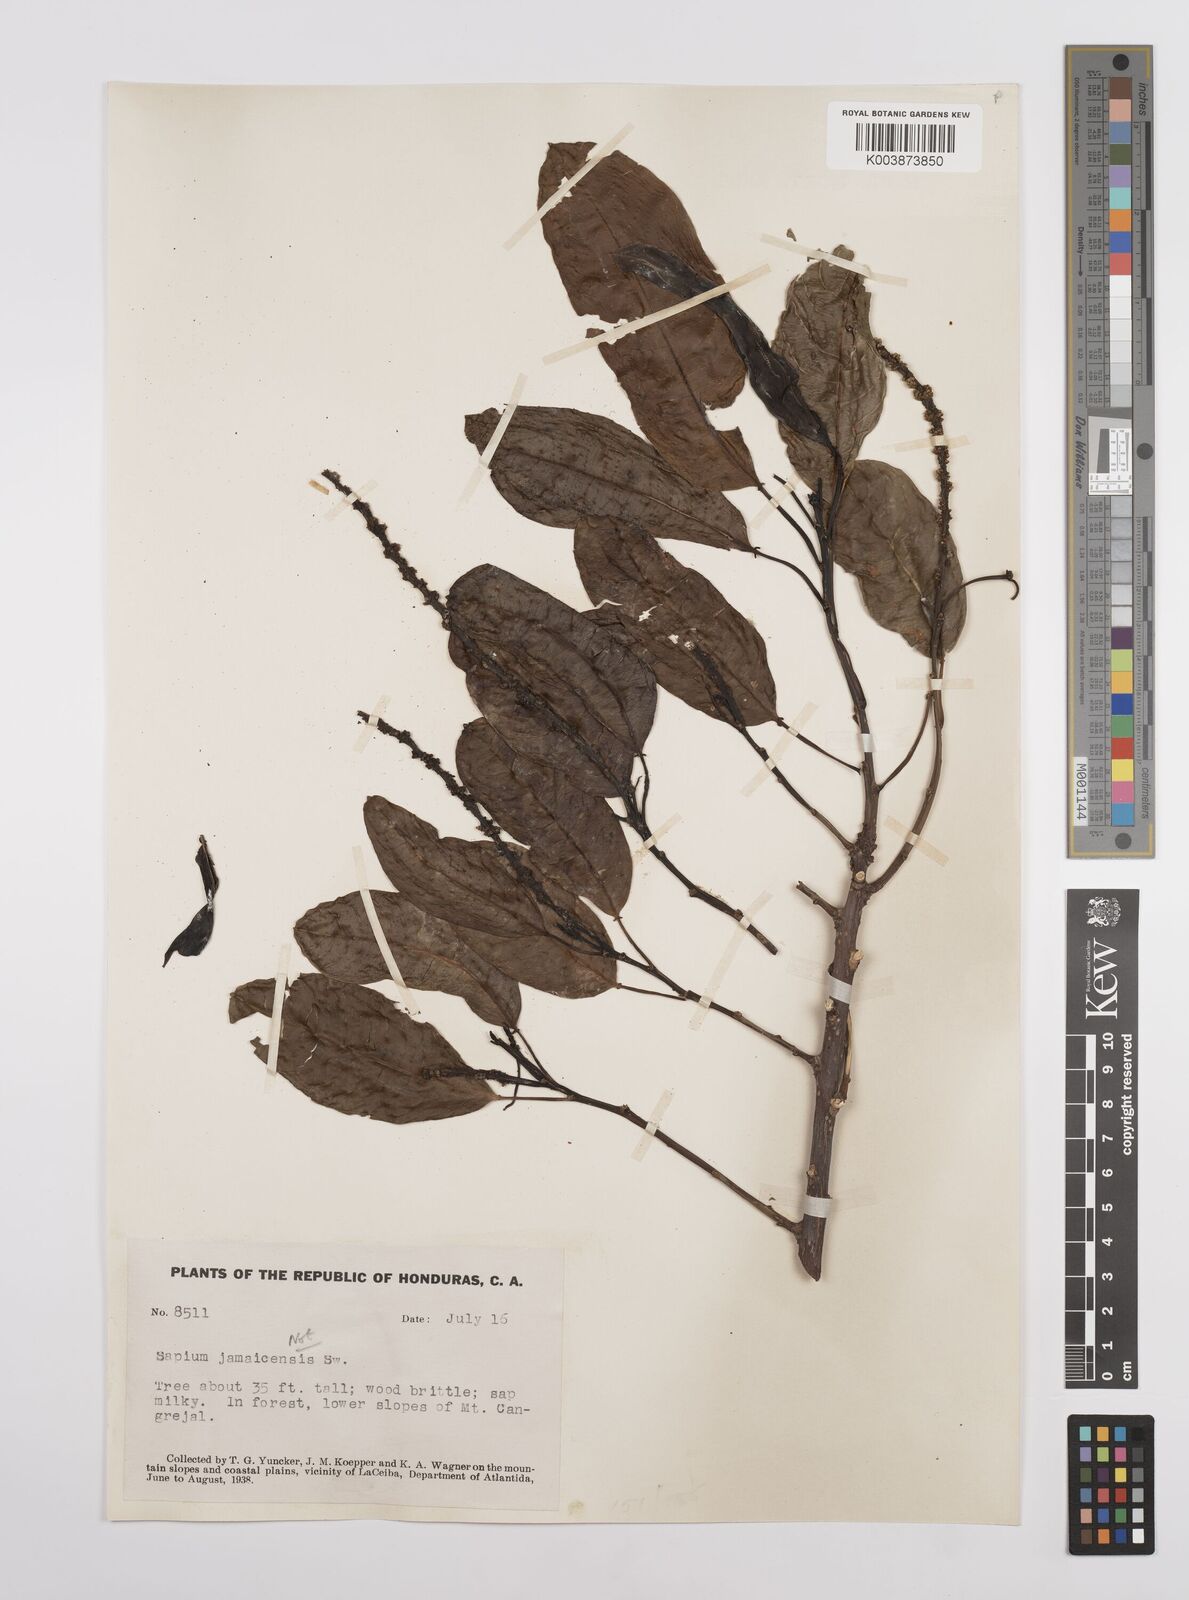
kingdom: Plantae
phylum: Tracheophyta
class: Magnoliopsida
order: Malpighiales
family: Euphorbiaceae
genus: Sapium
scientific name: Sapium glandulosum
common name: Milktree
